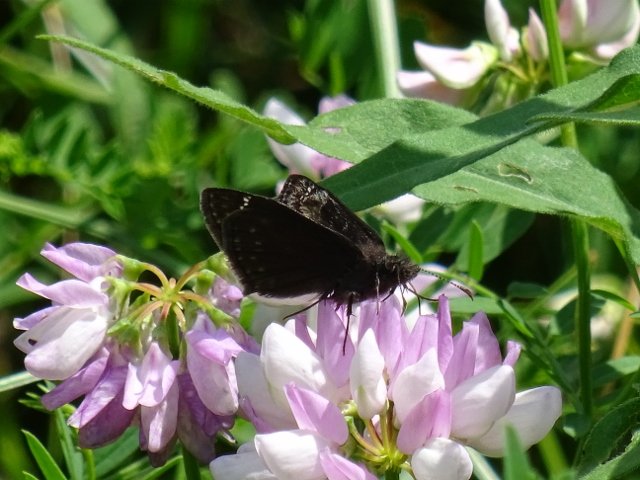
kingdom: Animalia
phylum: Arthropoda
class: Insecta
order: Lepidoptera
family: Hesperiidae
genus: Gesta
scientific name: Gesta
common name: Wild Indigo Duskywing
